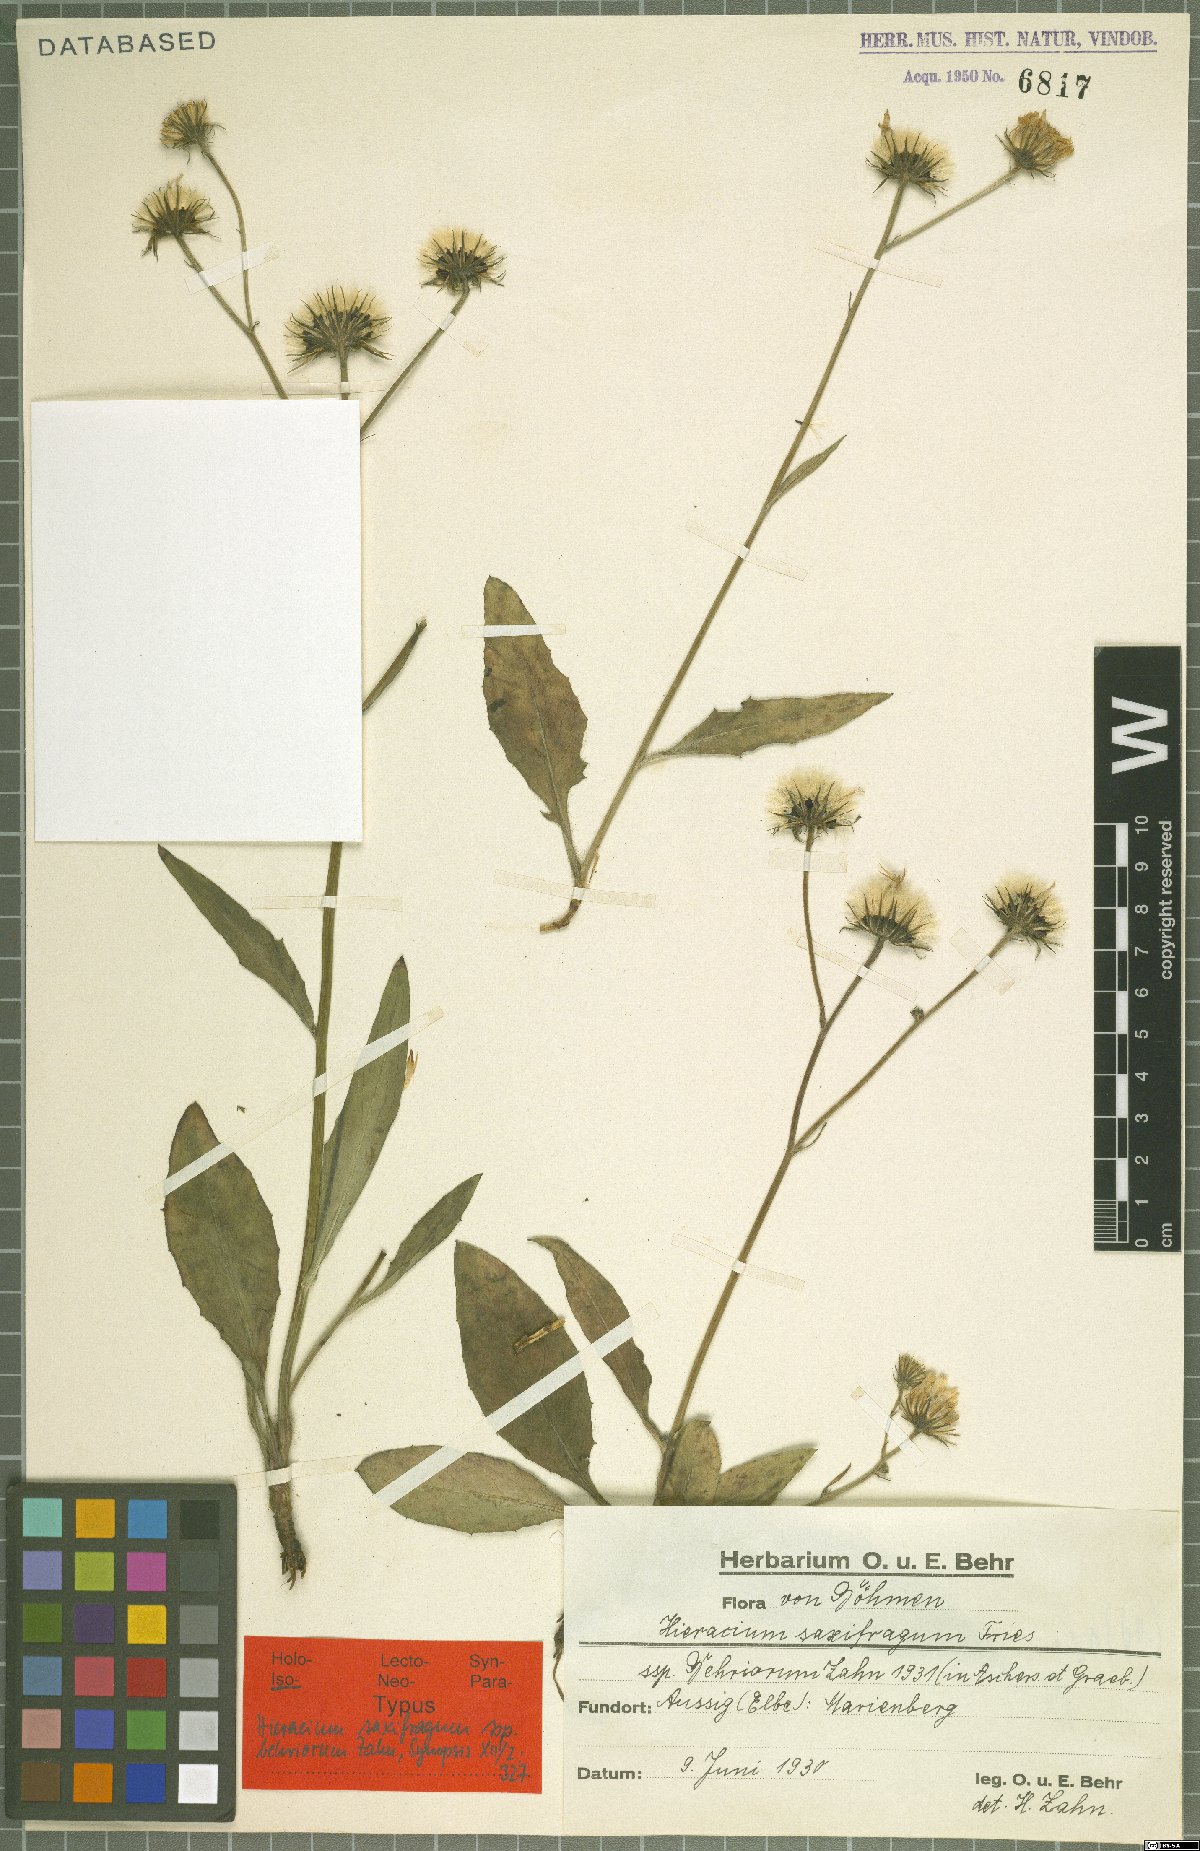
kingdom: Plantae
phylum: Tracheophyta
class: Magnoliopsida
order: Asterales
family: Asteraceae
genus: Hieracium
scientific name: Hieracium saxifragum
